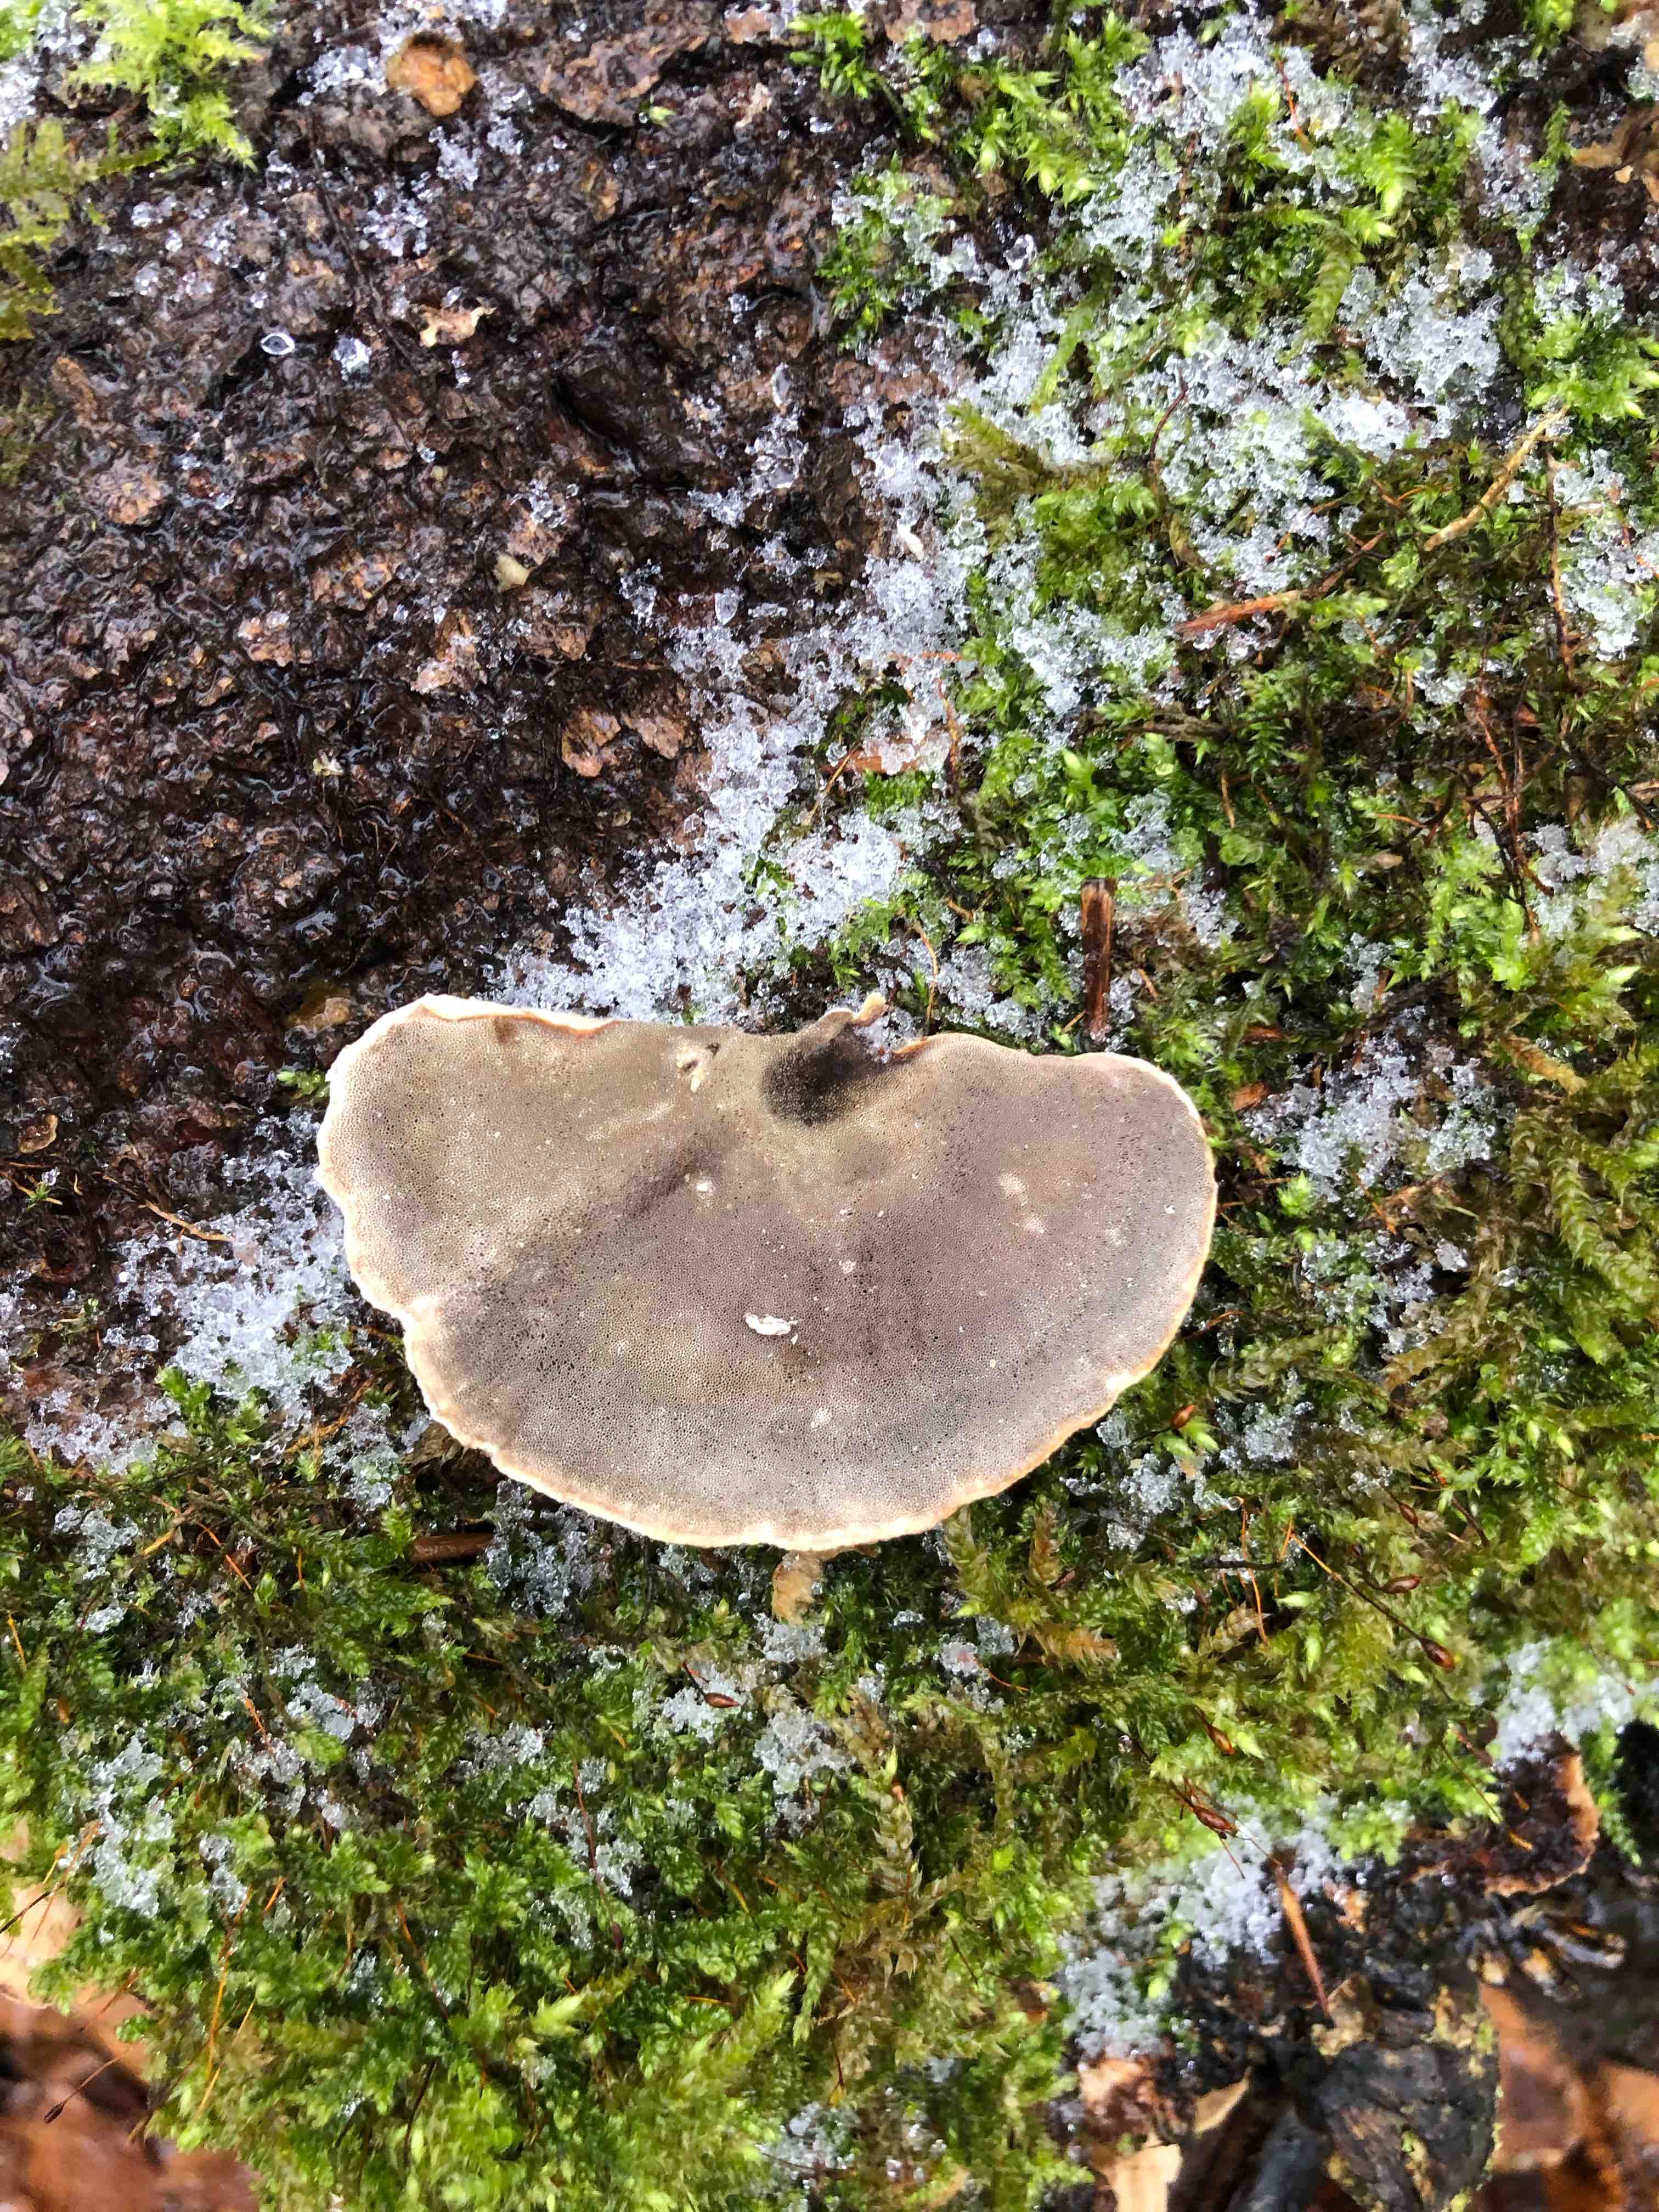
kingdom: Fungi
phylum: Basidiomycota
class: Agaricomycetes
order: Polyporales
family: Phanerochaetaceae
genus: Bjerkandera
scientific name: Bjerkandera adusta
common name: sveden sodporesvamp
